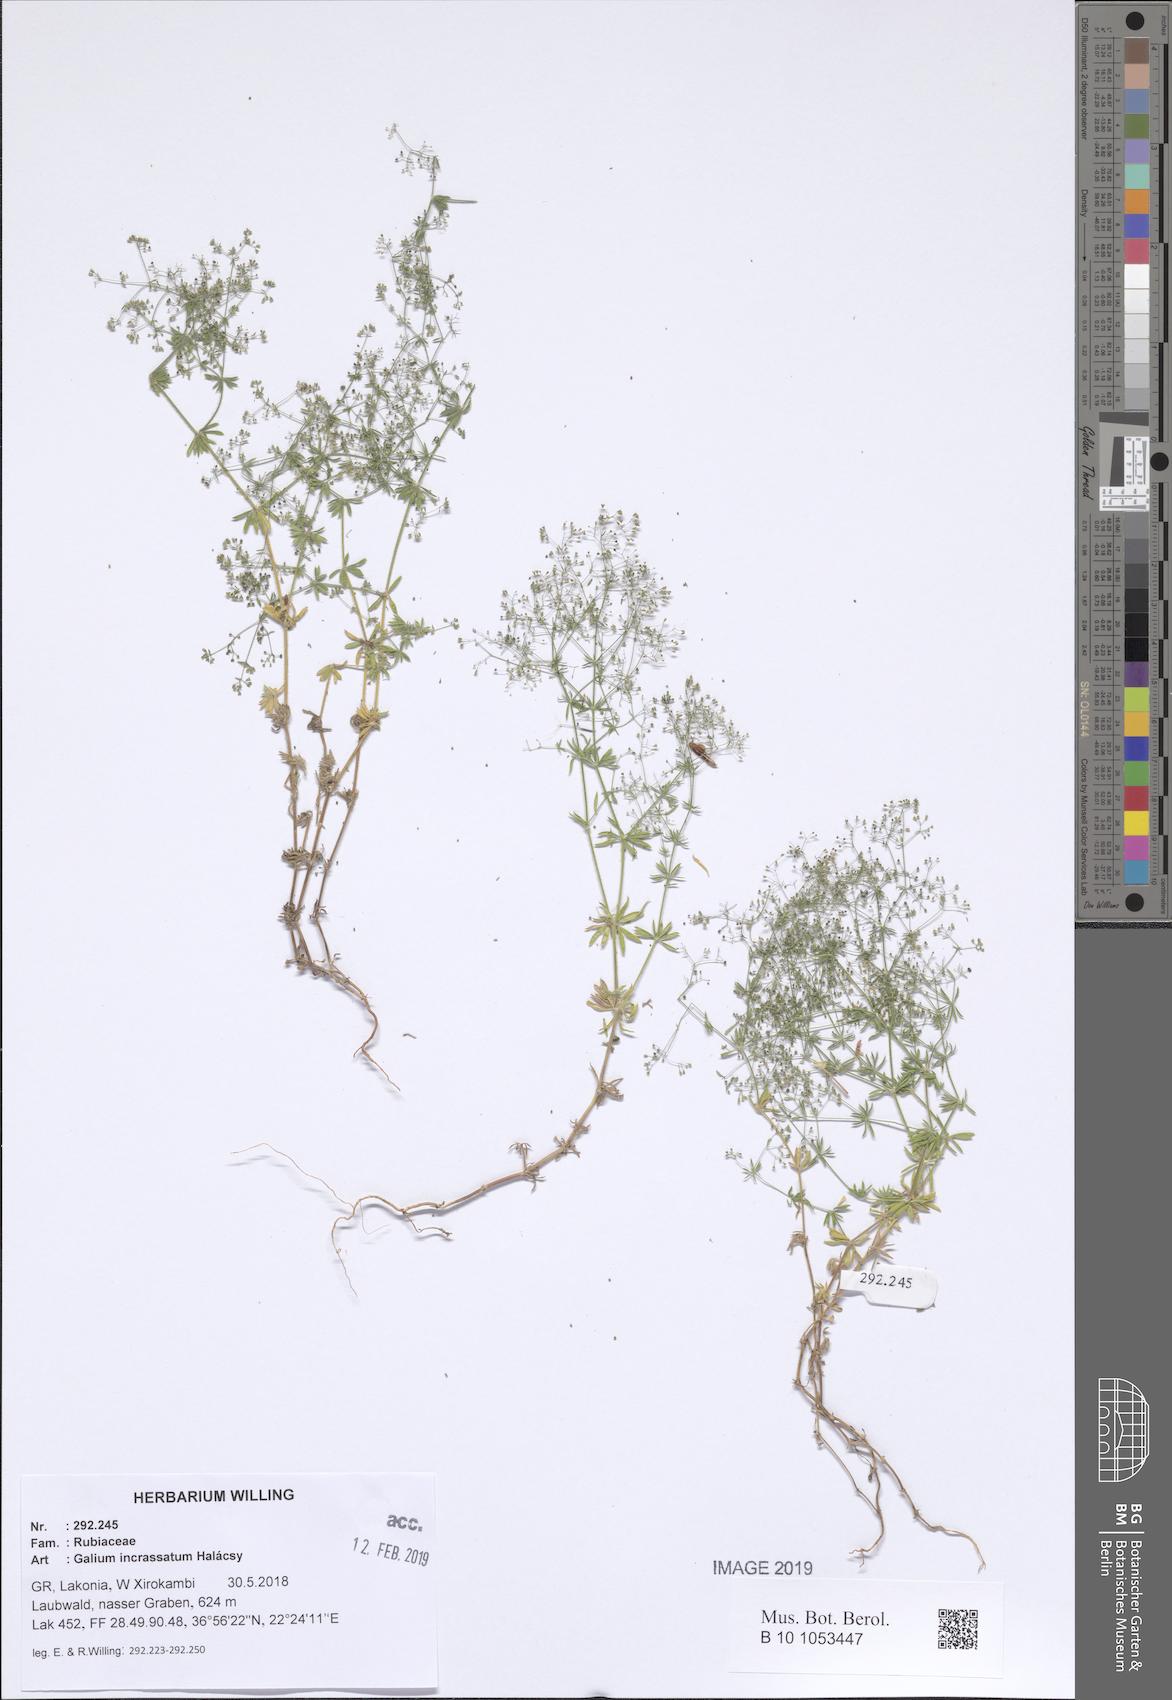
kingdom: Plantae
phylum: Tracheophyta
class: Magnoliopsida
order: Gentianales
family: Rubiaceae
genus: Galium
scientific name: Galium incrassatum
